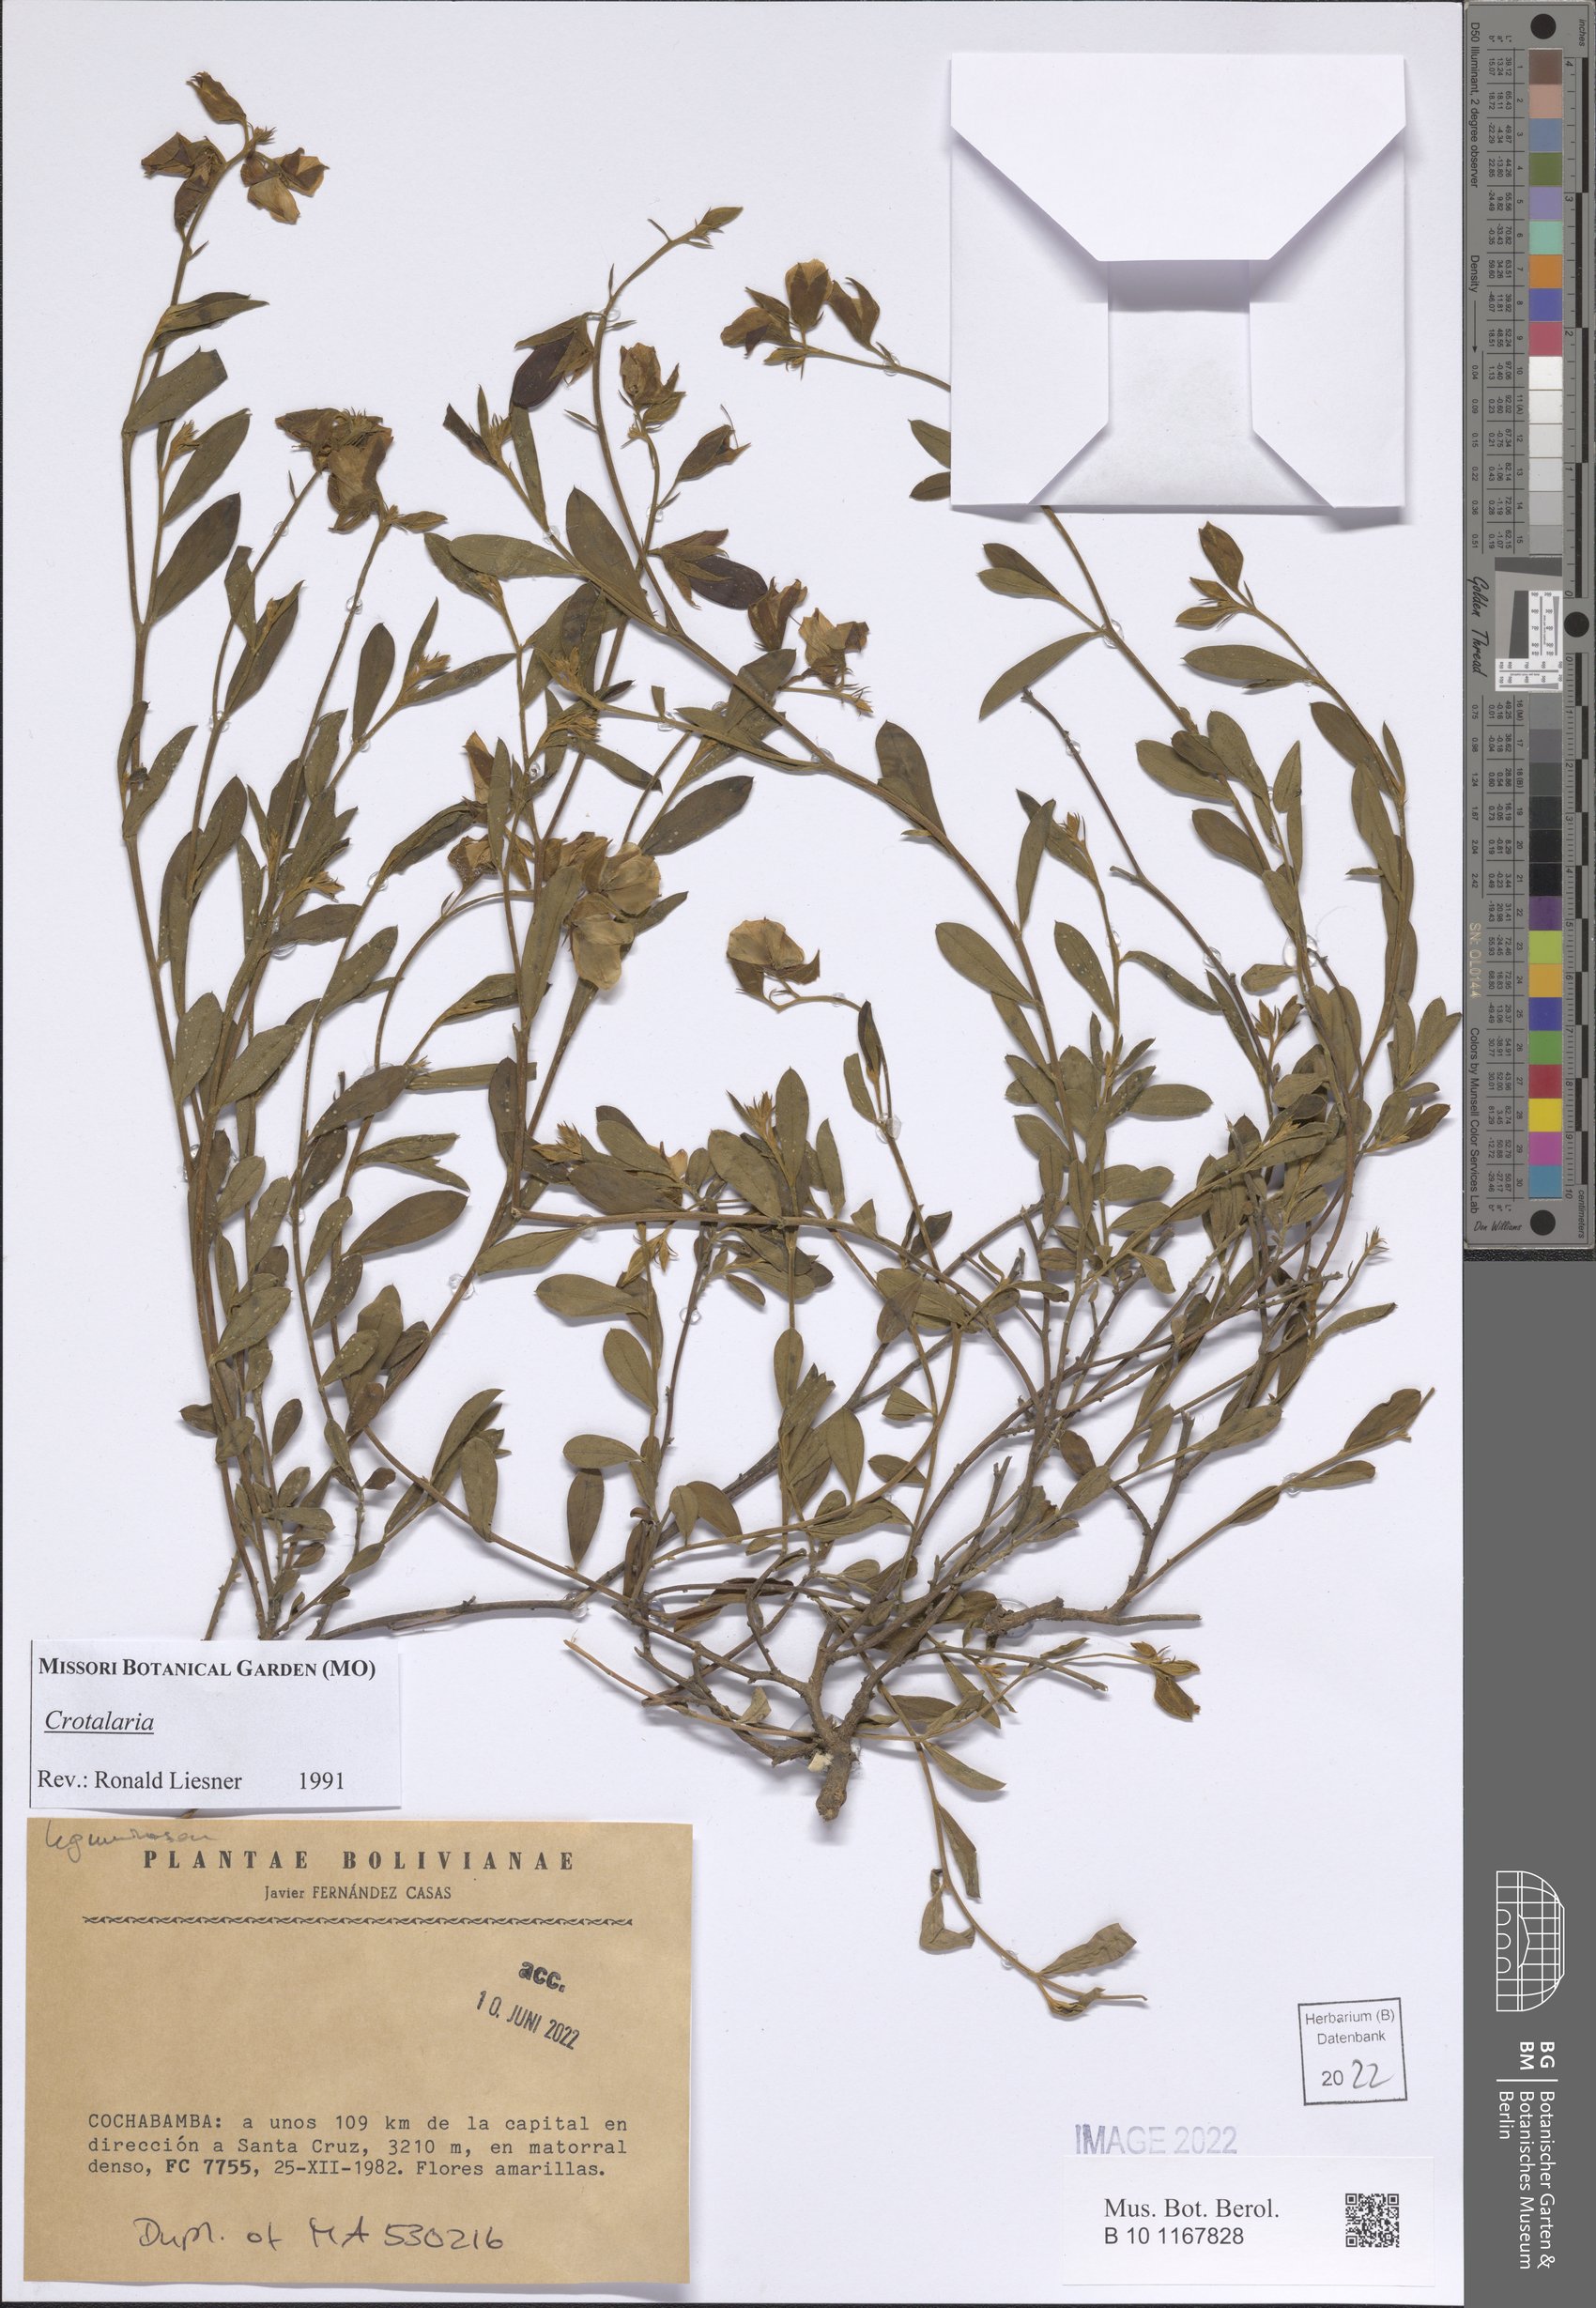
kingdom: Plantae
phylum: Tracheophyta
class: Magnoliopsida
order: Fabales
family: Fabaceae
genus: Crotalaria
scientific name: Crotalaria
